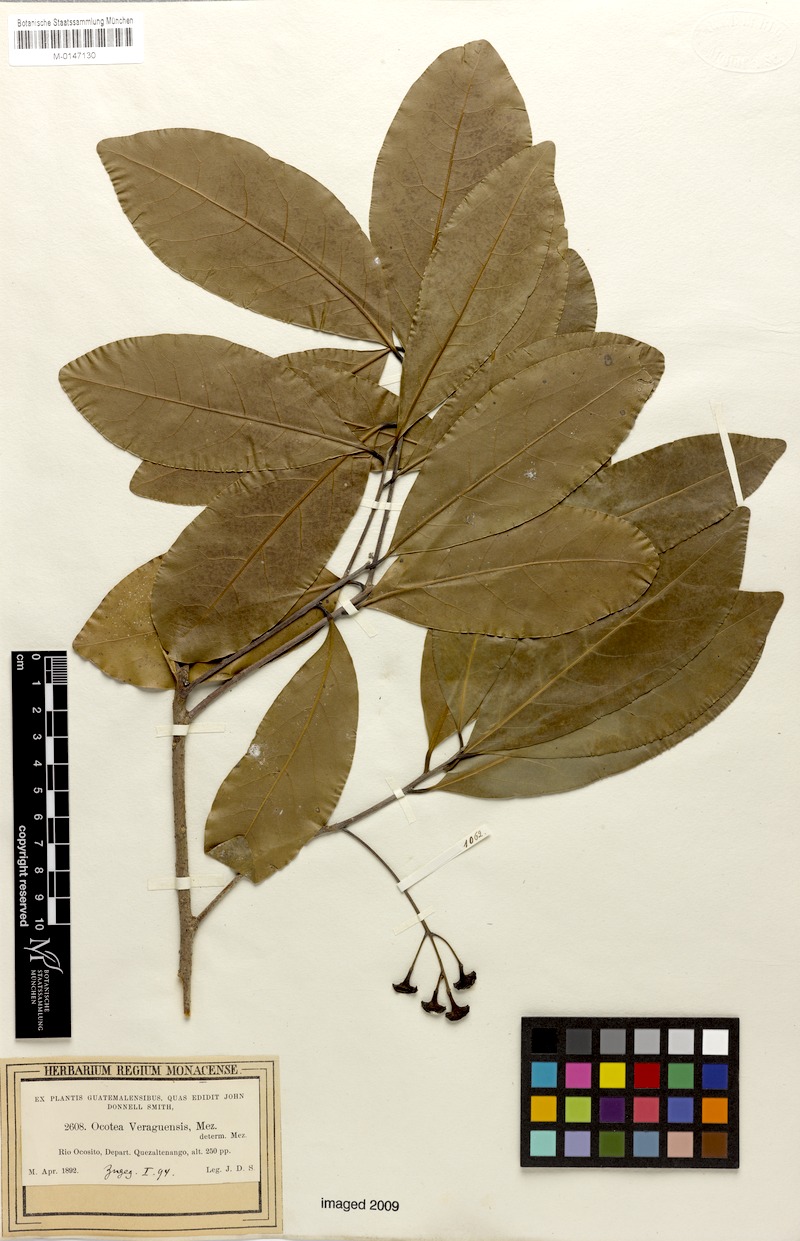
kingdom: Plantae
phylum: Tracheophyta
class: Magnoliopsida
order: Laurales
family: Lauraceae
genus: Mespilodaphne
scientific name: Mespilodaphne veraguensis
